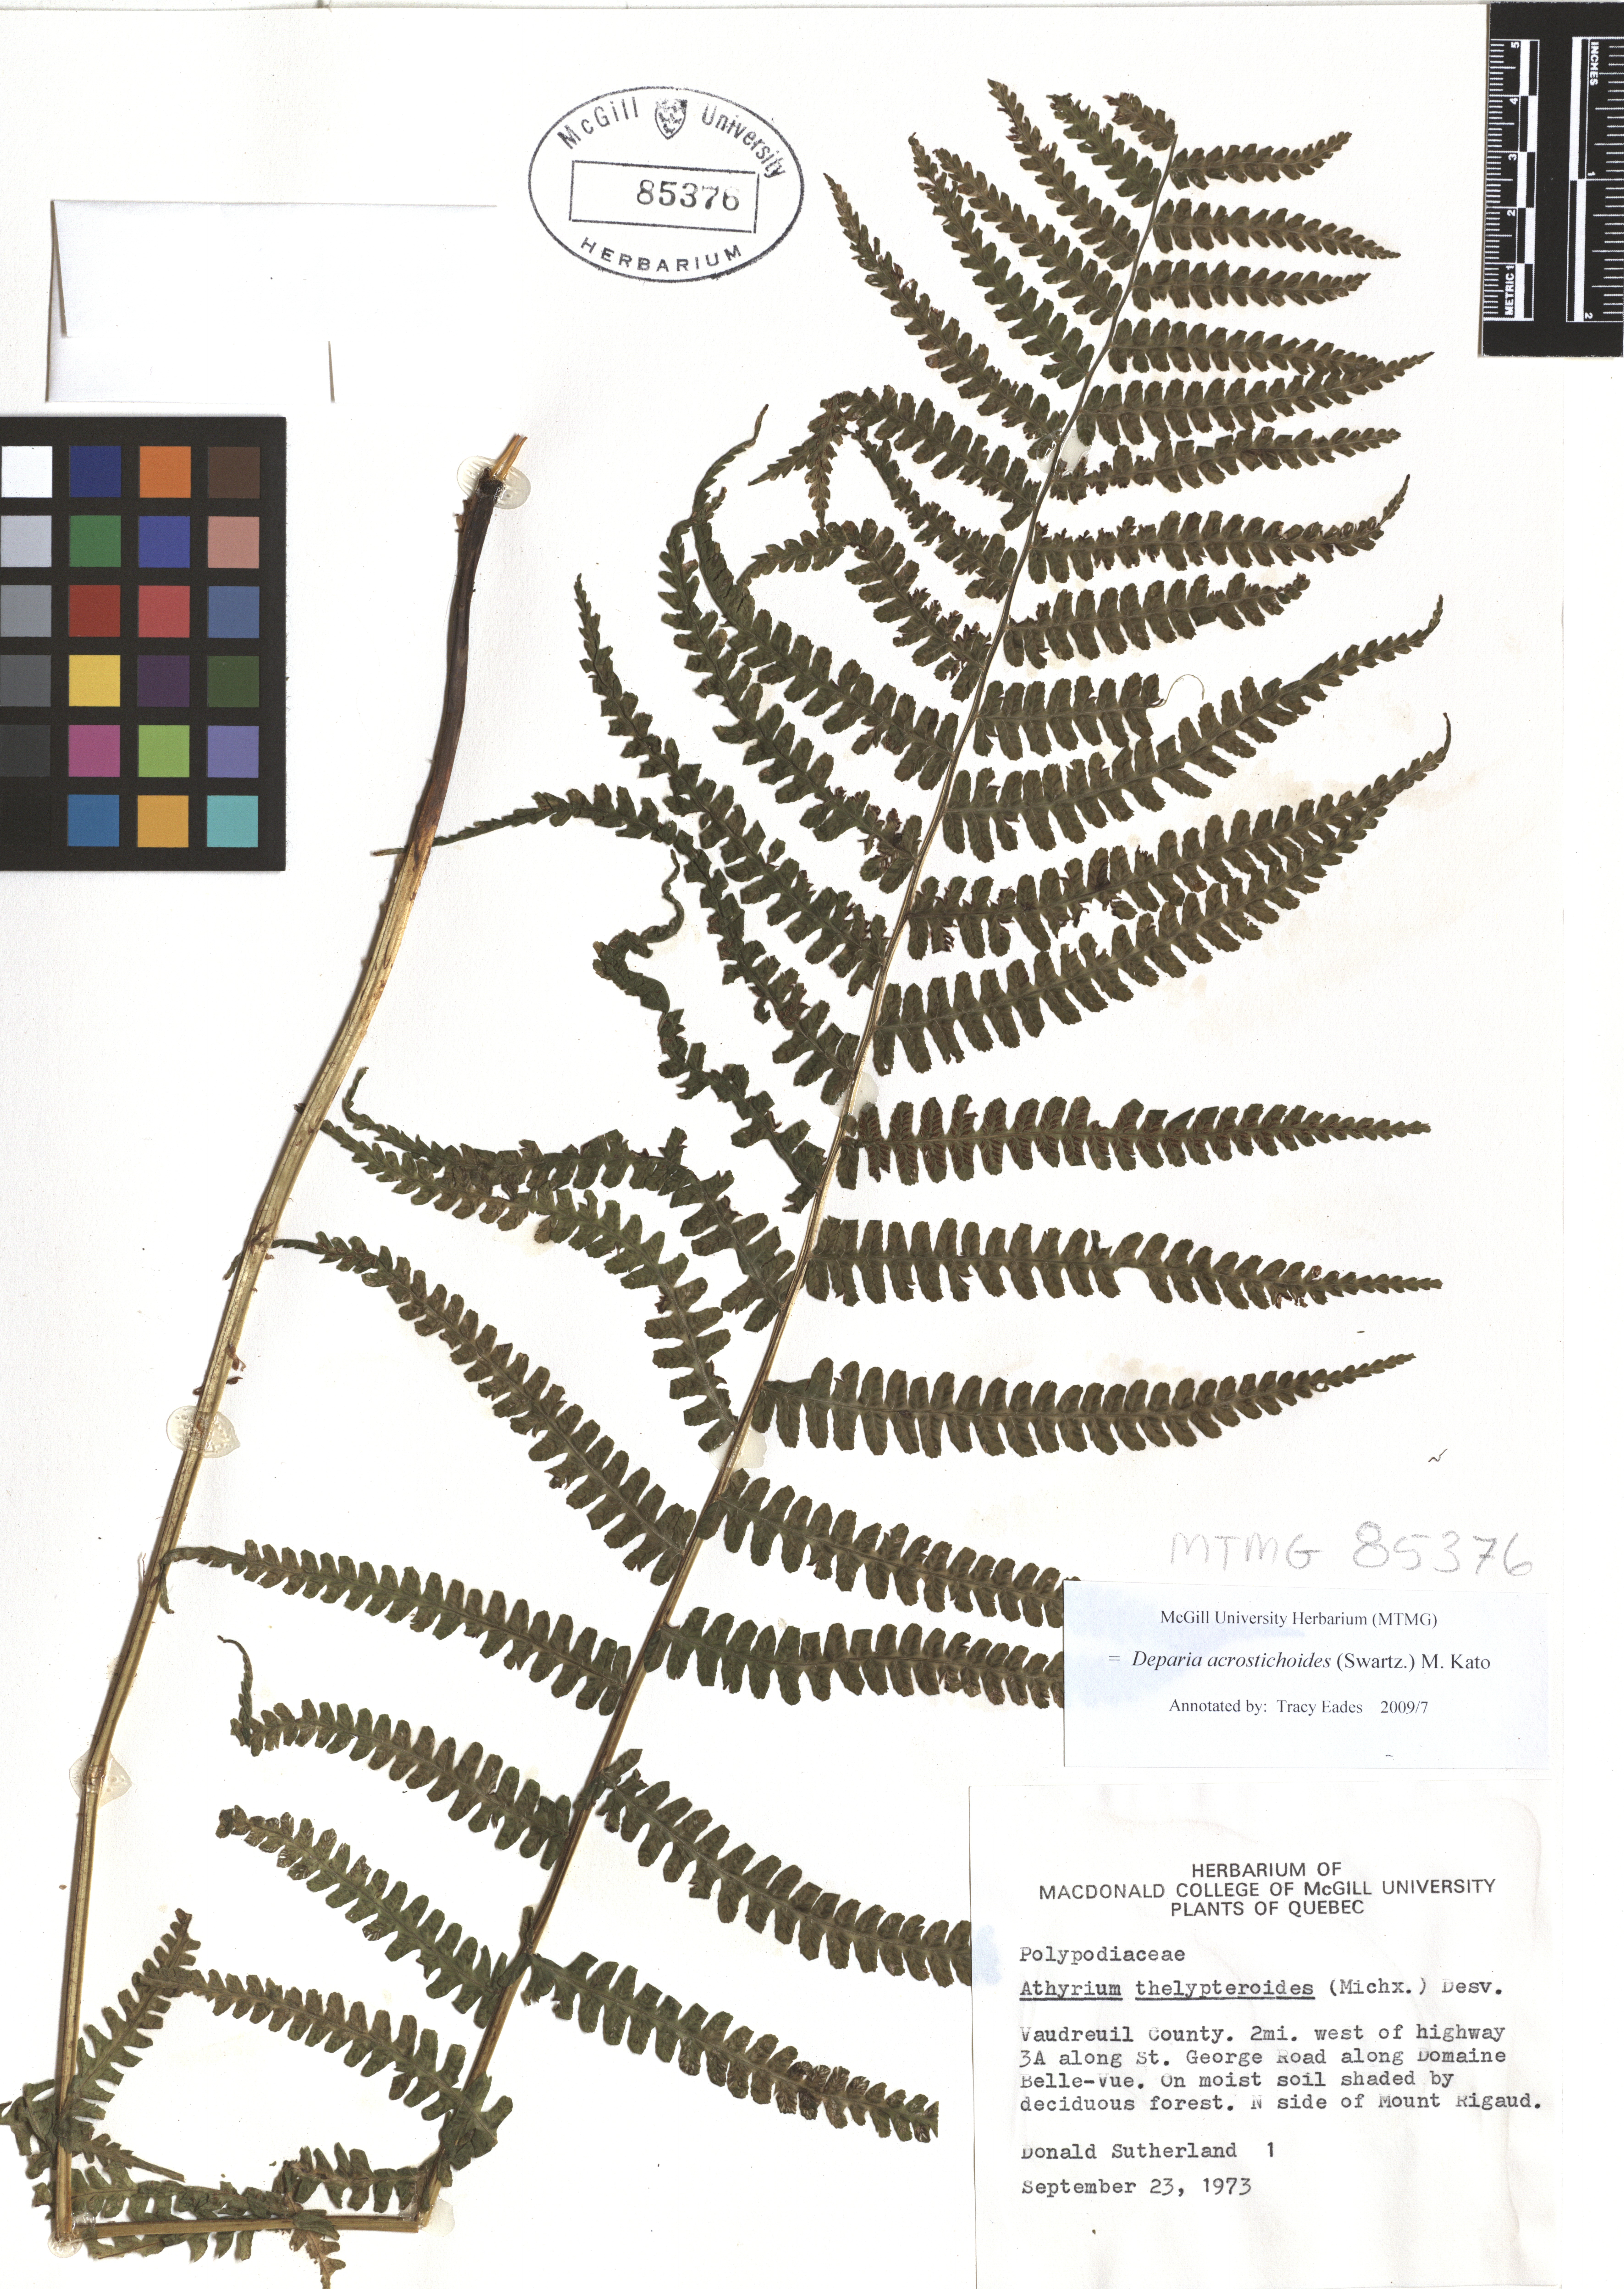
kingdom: Plantae
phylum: Tracheophyta
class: Polypodiopsida
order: Polypodiales
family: Athyriaceae
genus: Deparia
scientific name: Deparia acrostichoides
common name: Silver false spleenwort
